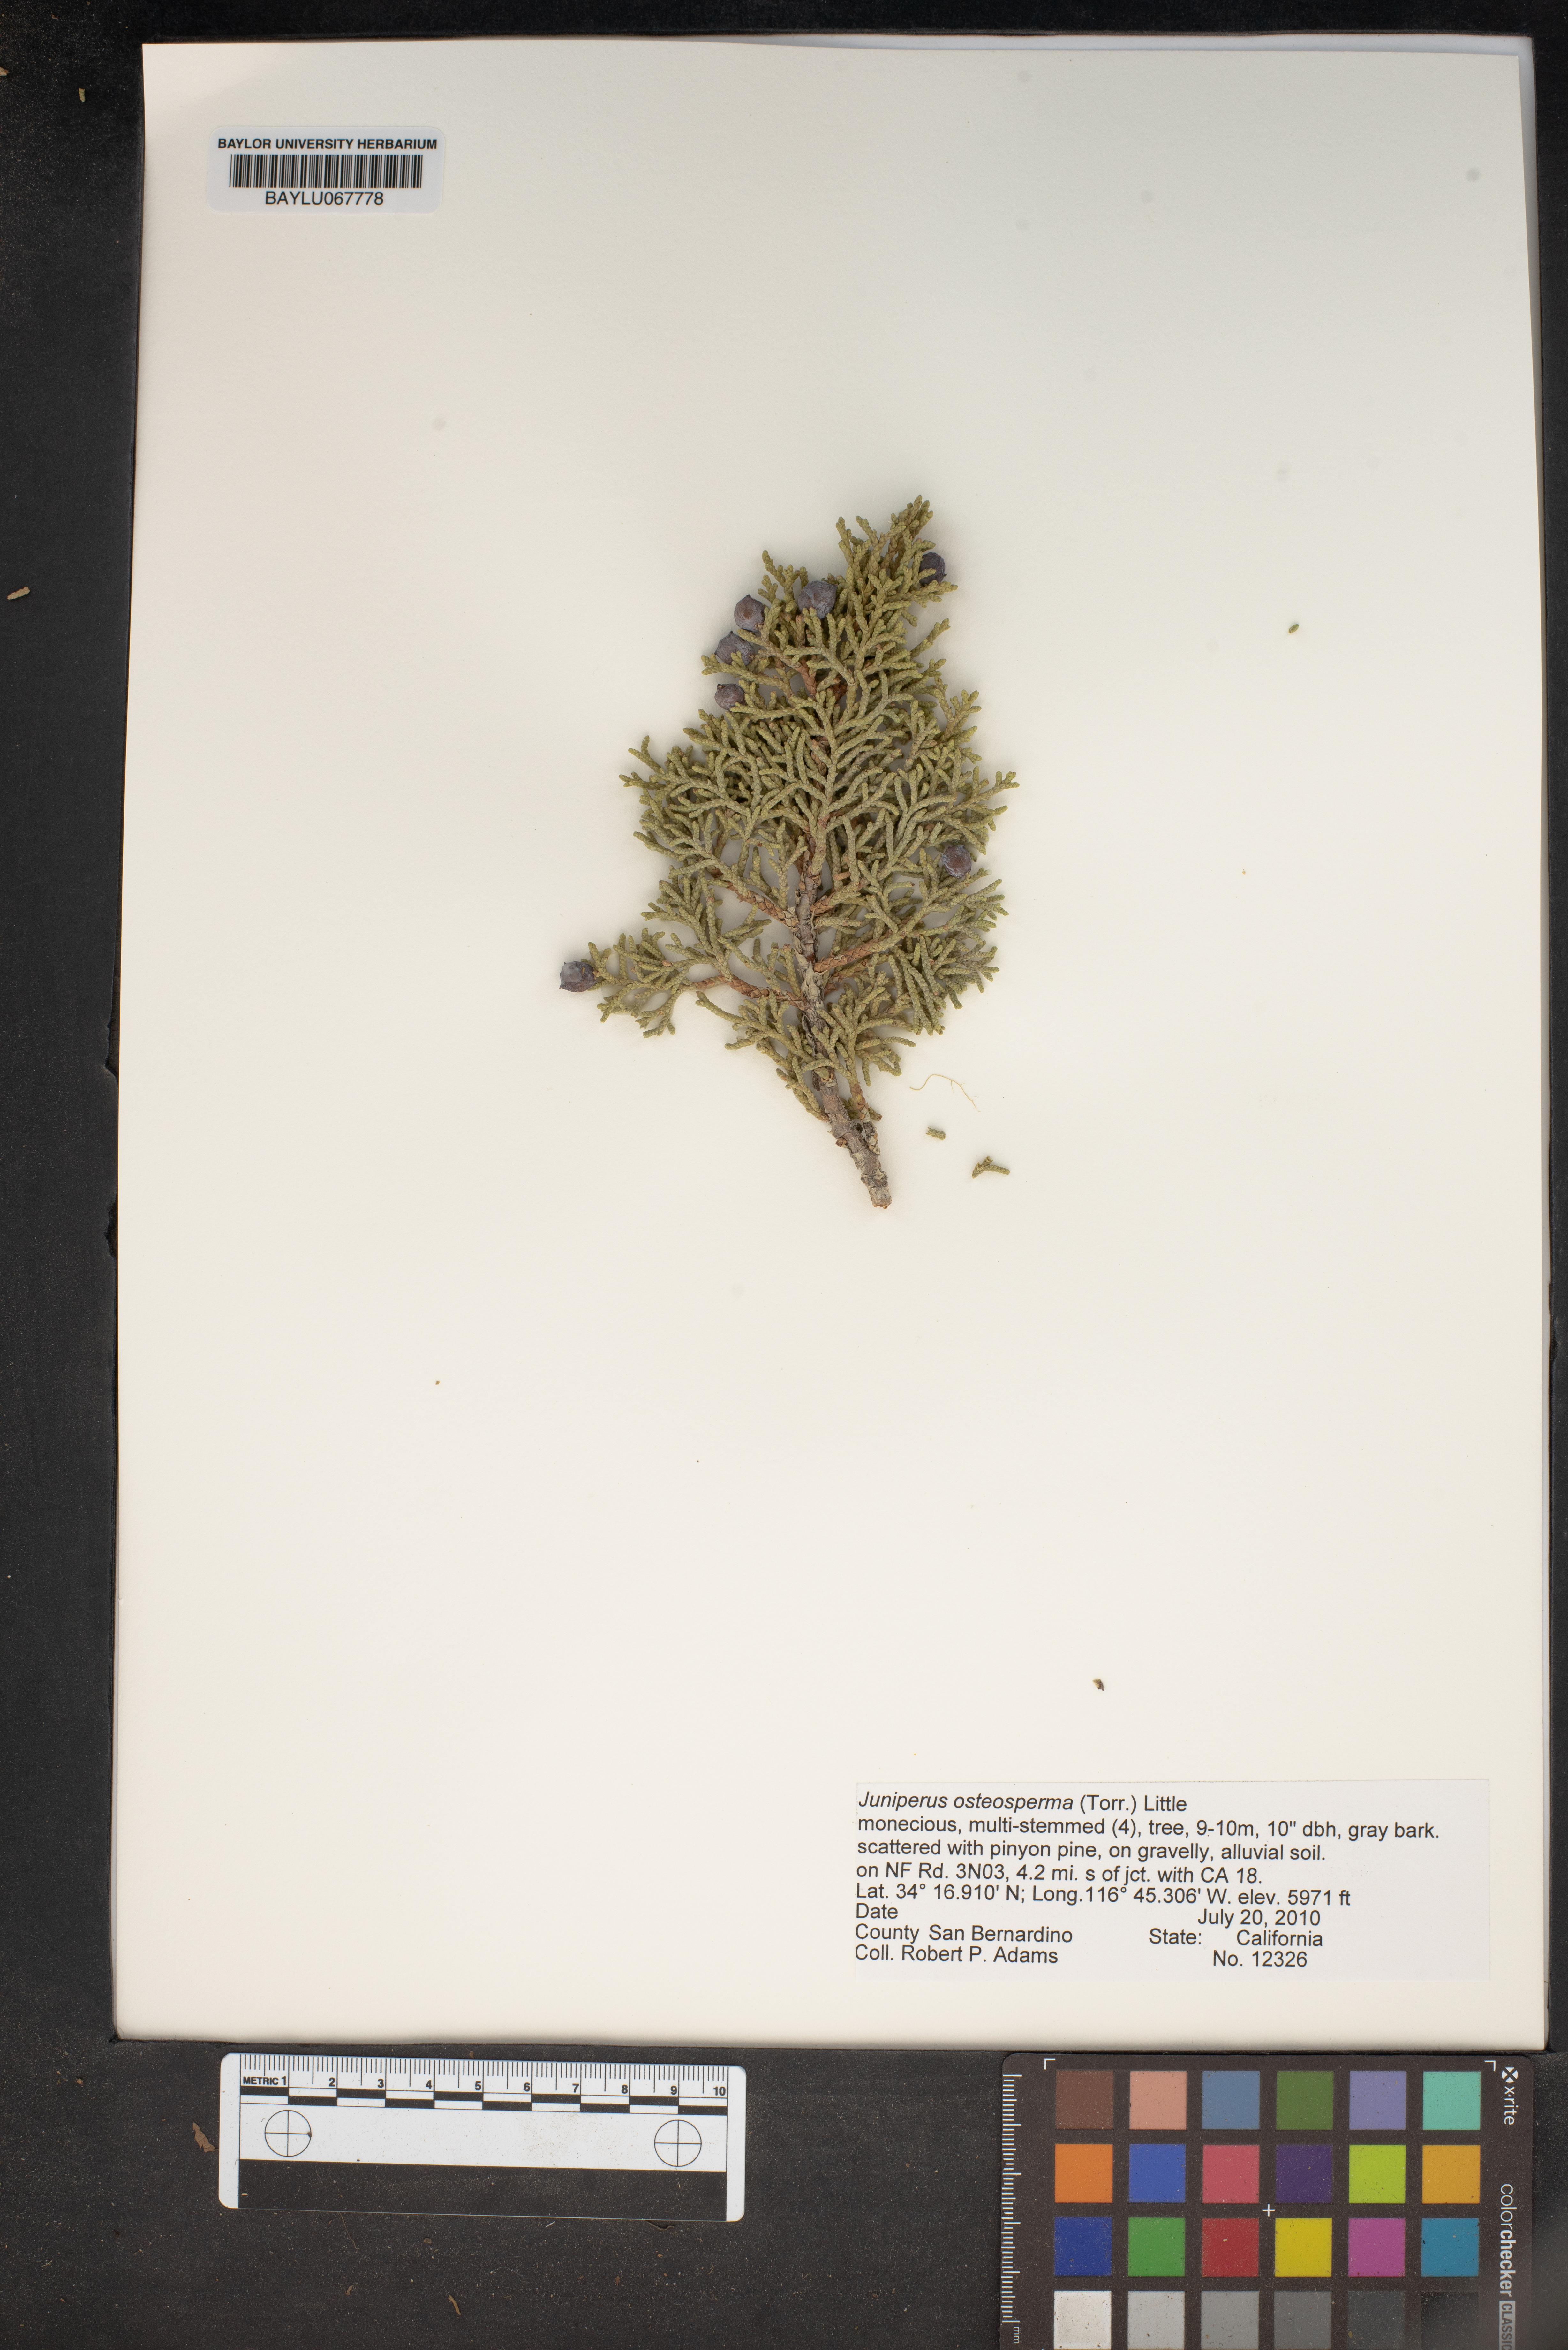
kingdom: Plantae
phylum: Tracheophyta
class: Pinopsida
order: Pinales
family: Cupressaceae
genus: Juniperus
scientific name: Juniperus osteosperma
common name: Utah juniper
